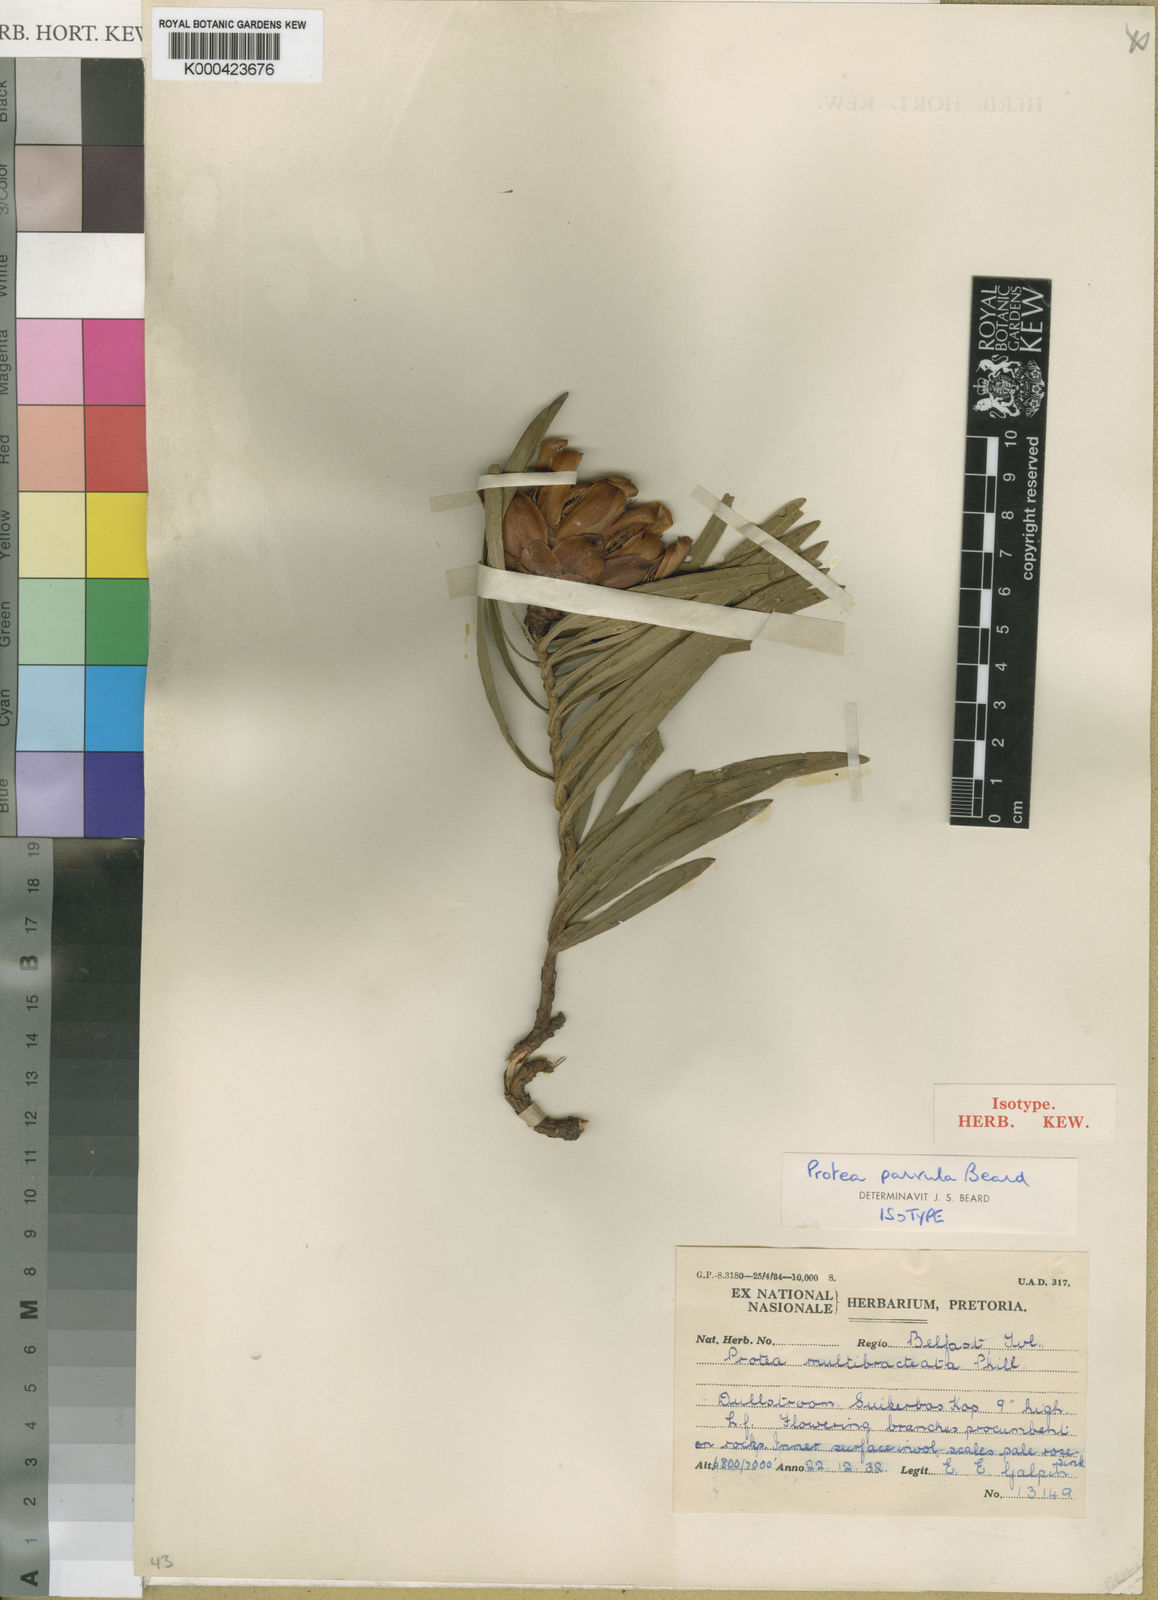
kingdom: Plantae
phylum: Tracheophyta
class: Magnoliopsida
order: Proteales
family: Proteaceae
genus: Protea
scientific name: Protea parvula
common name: Dainty sugarbush
